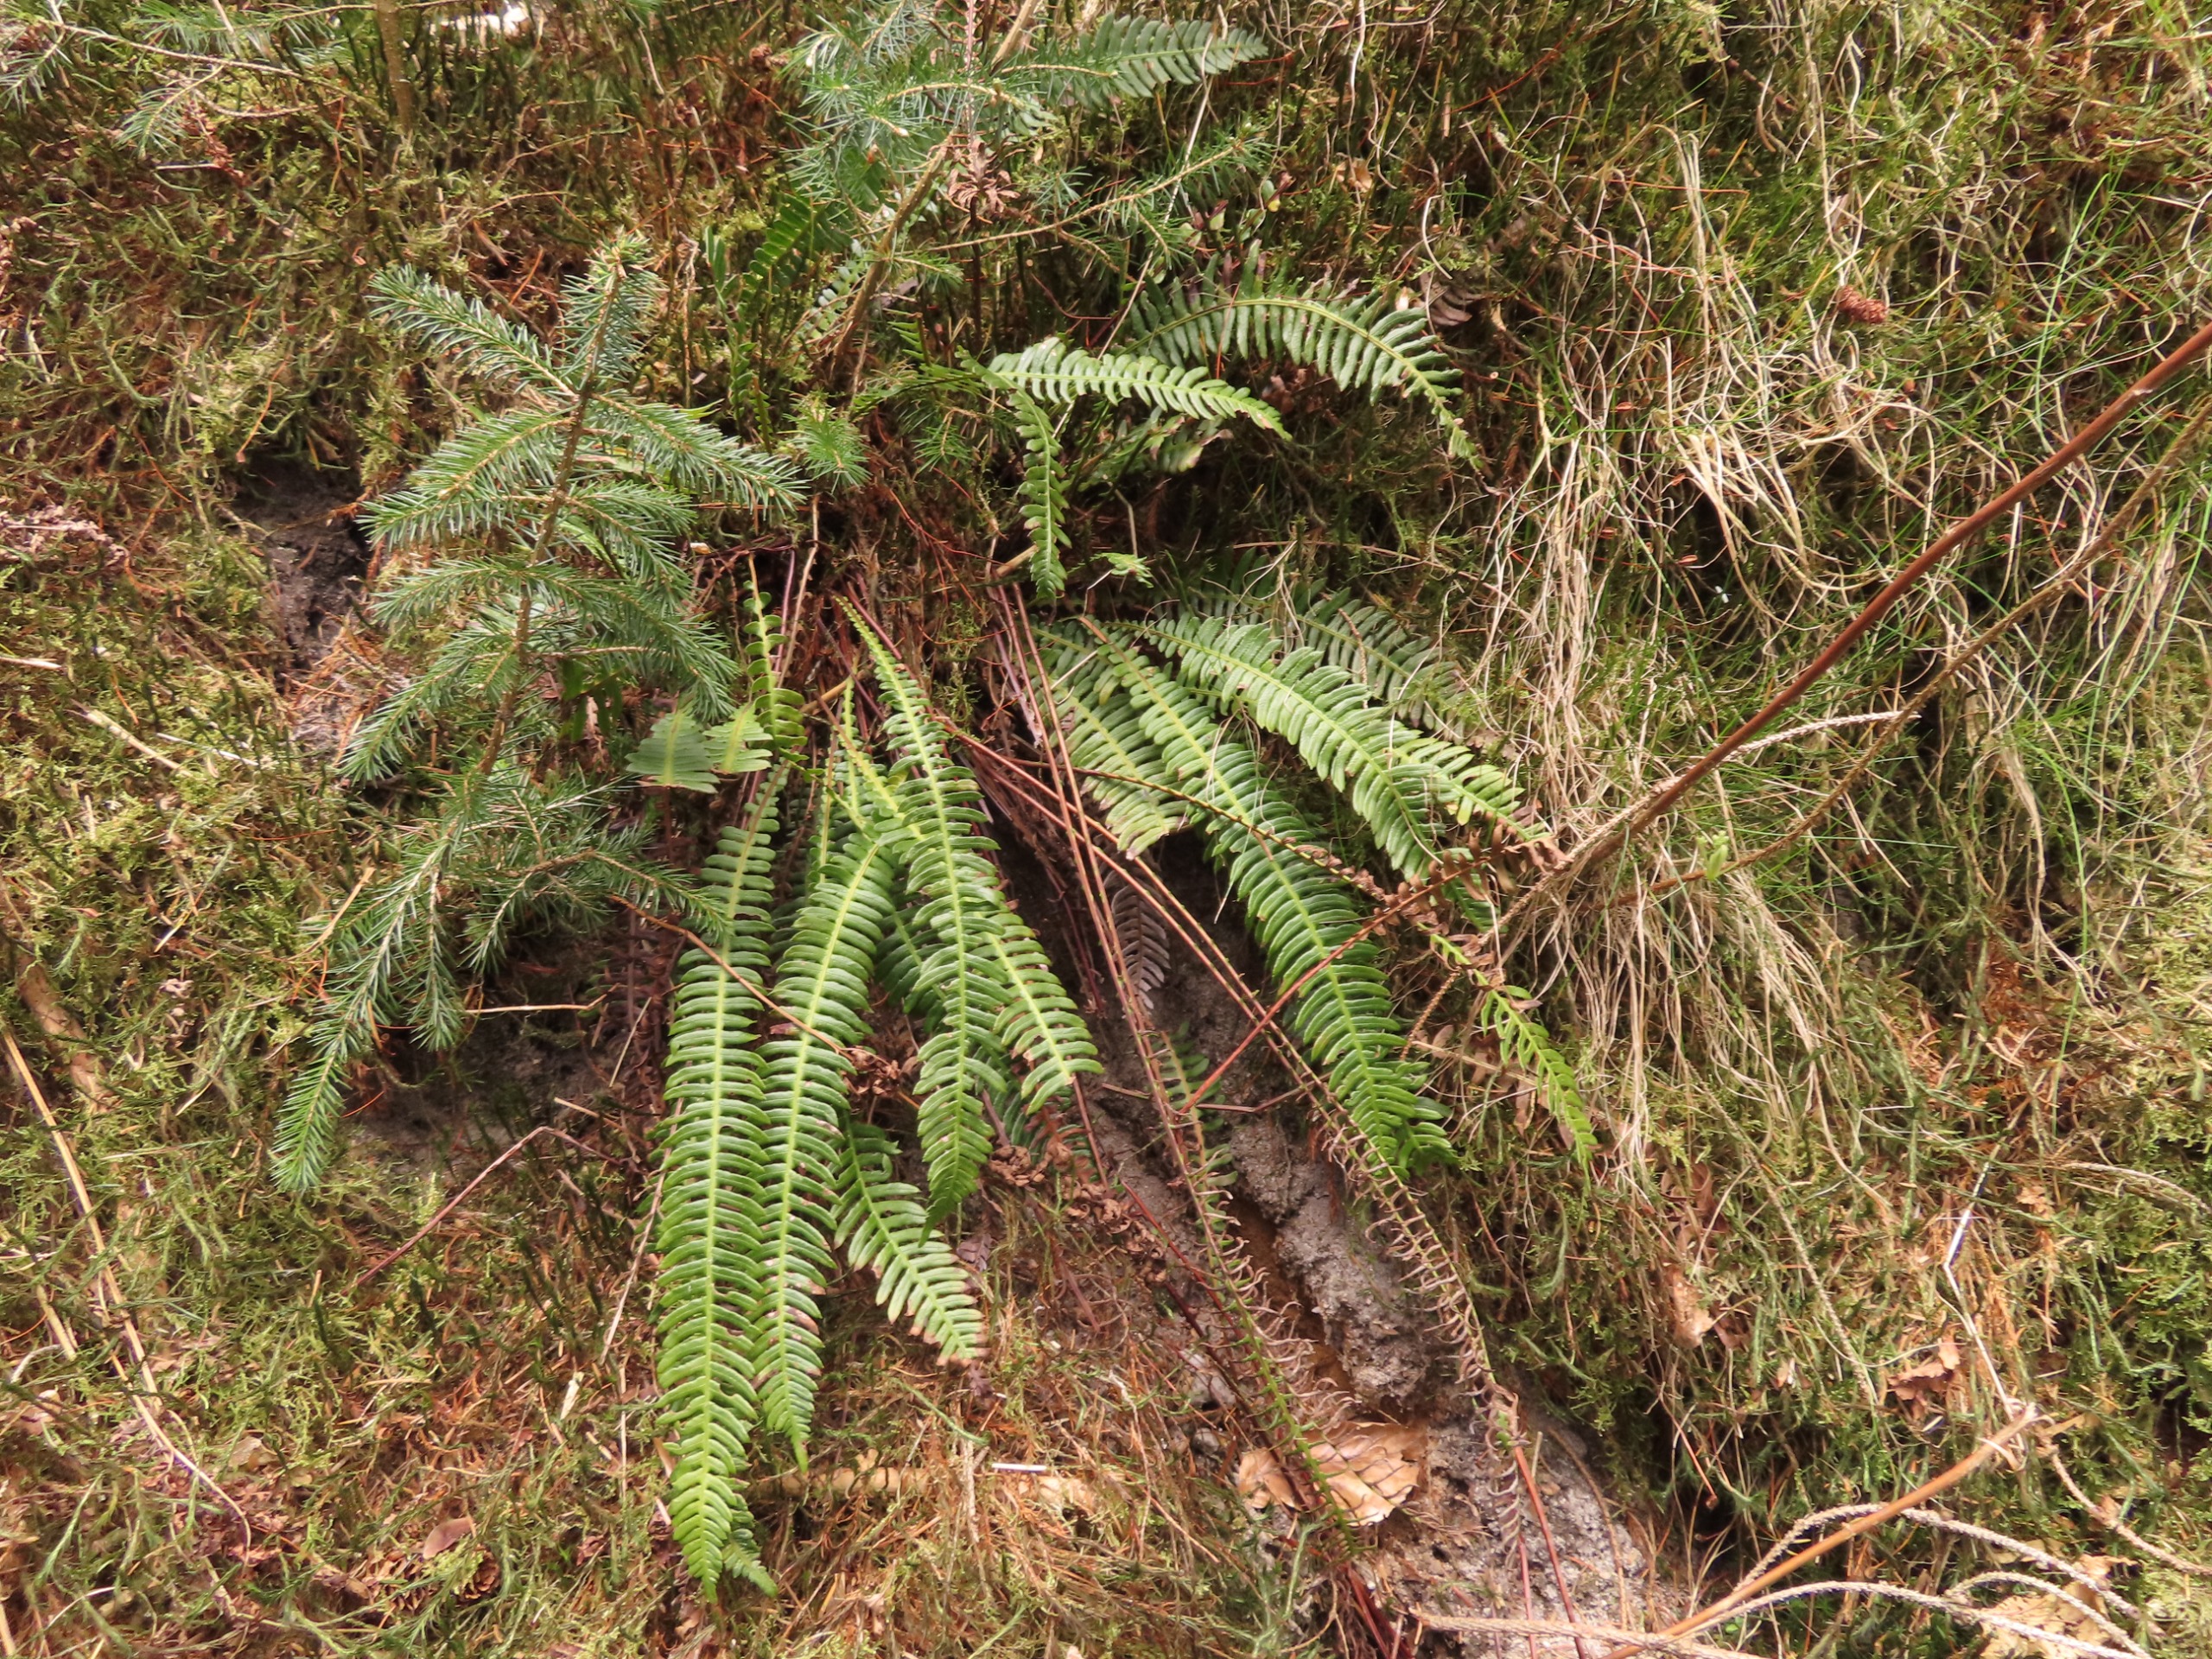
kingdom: Plantae
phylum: Tracheophyta
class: Polypodiopsida
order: Polypodiales
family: Blechnaceae
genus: Struthiopteris
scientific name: Struthiopteris spicant
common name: Kambregne
